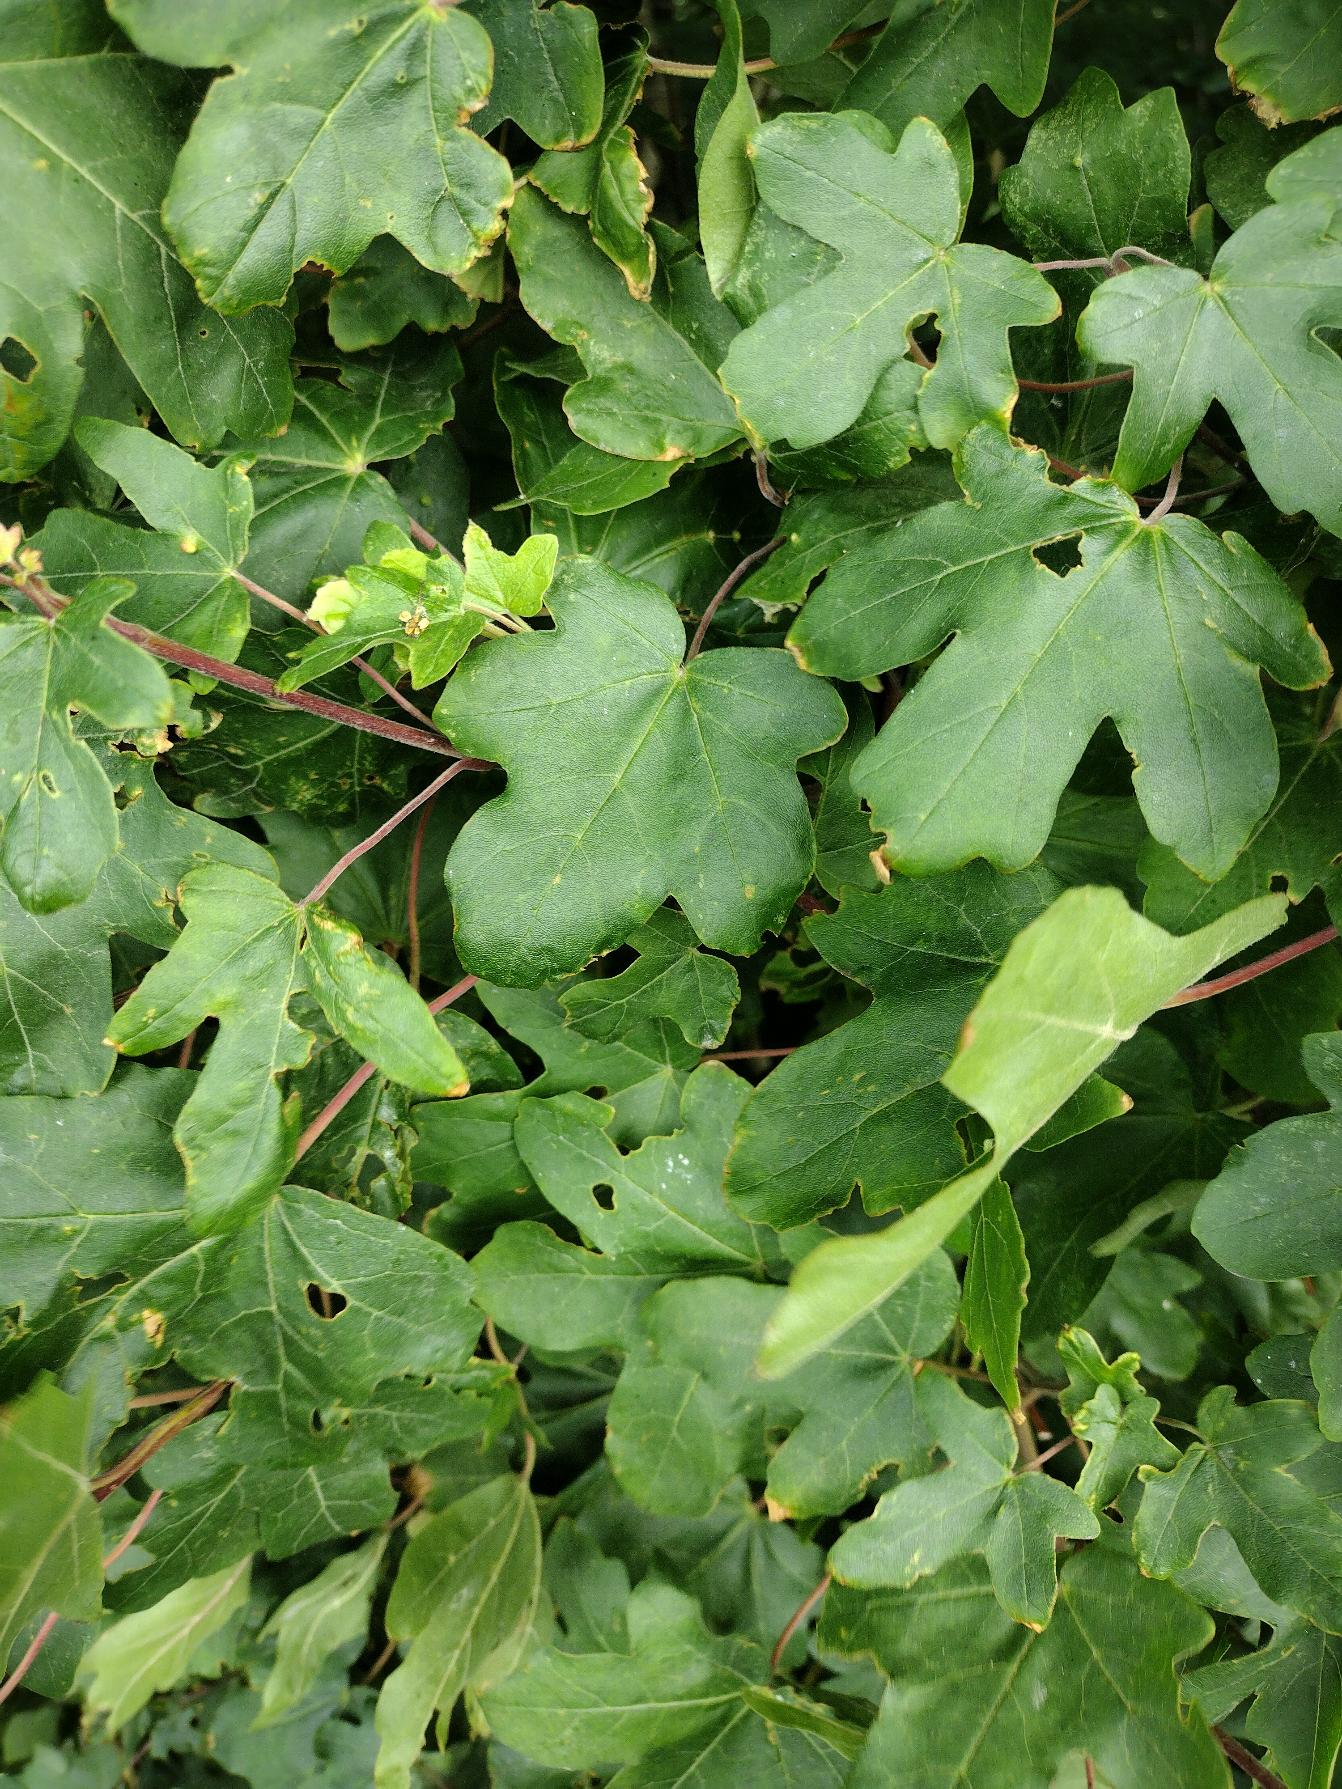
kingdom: Plantae
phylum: Tracheophyta
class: Magnoliopsida
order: Sapindales
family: Sapindaceae
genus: Acer
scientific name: Acer campestre
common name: Navr
